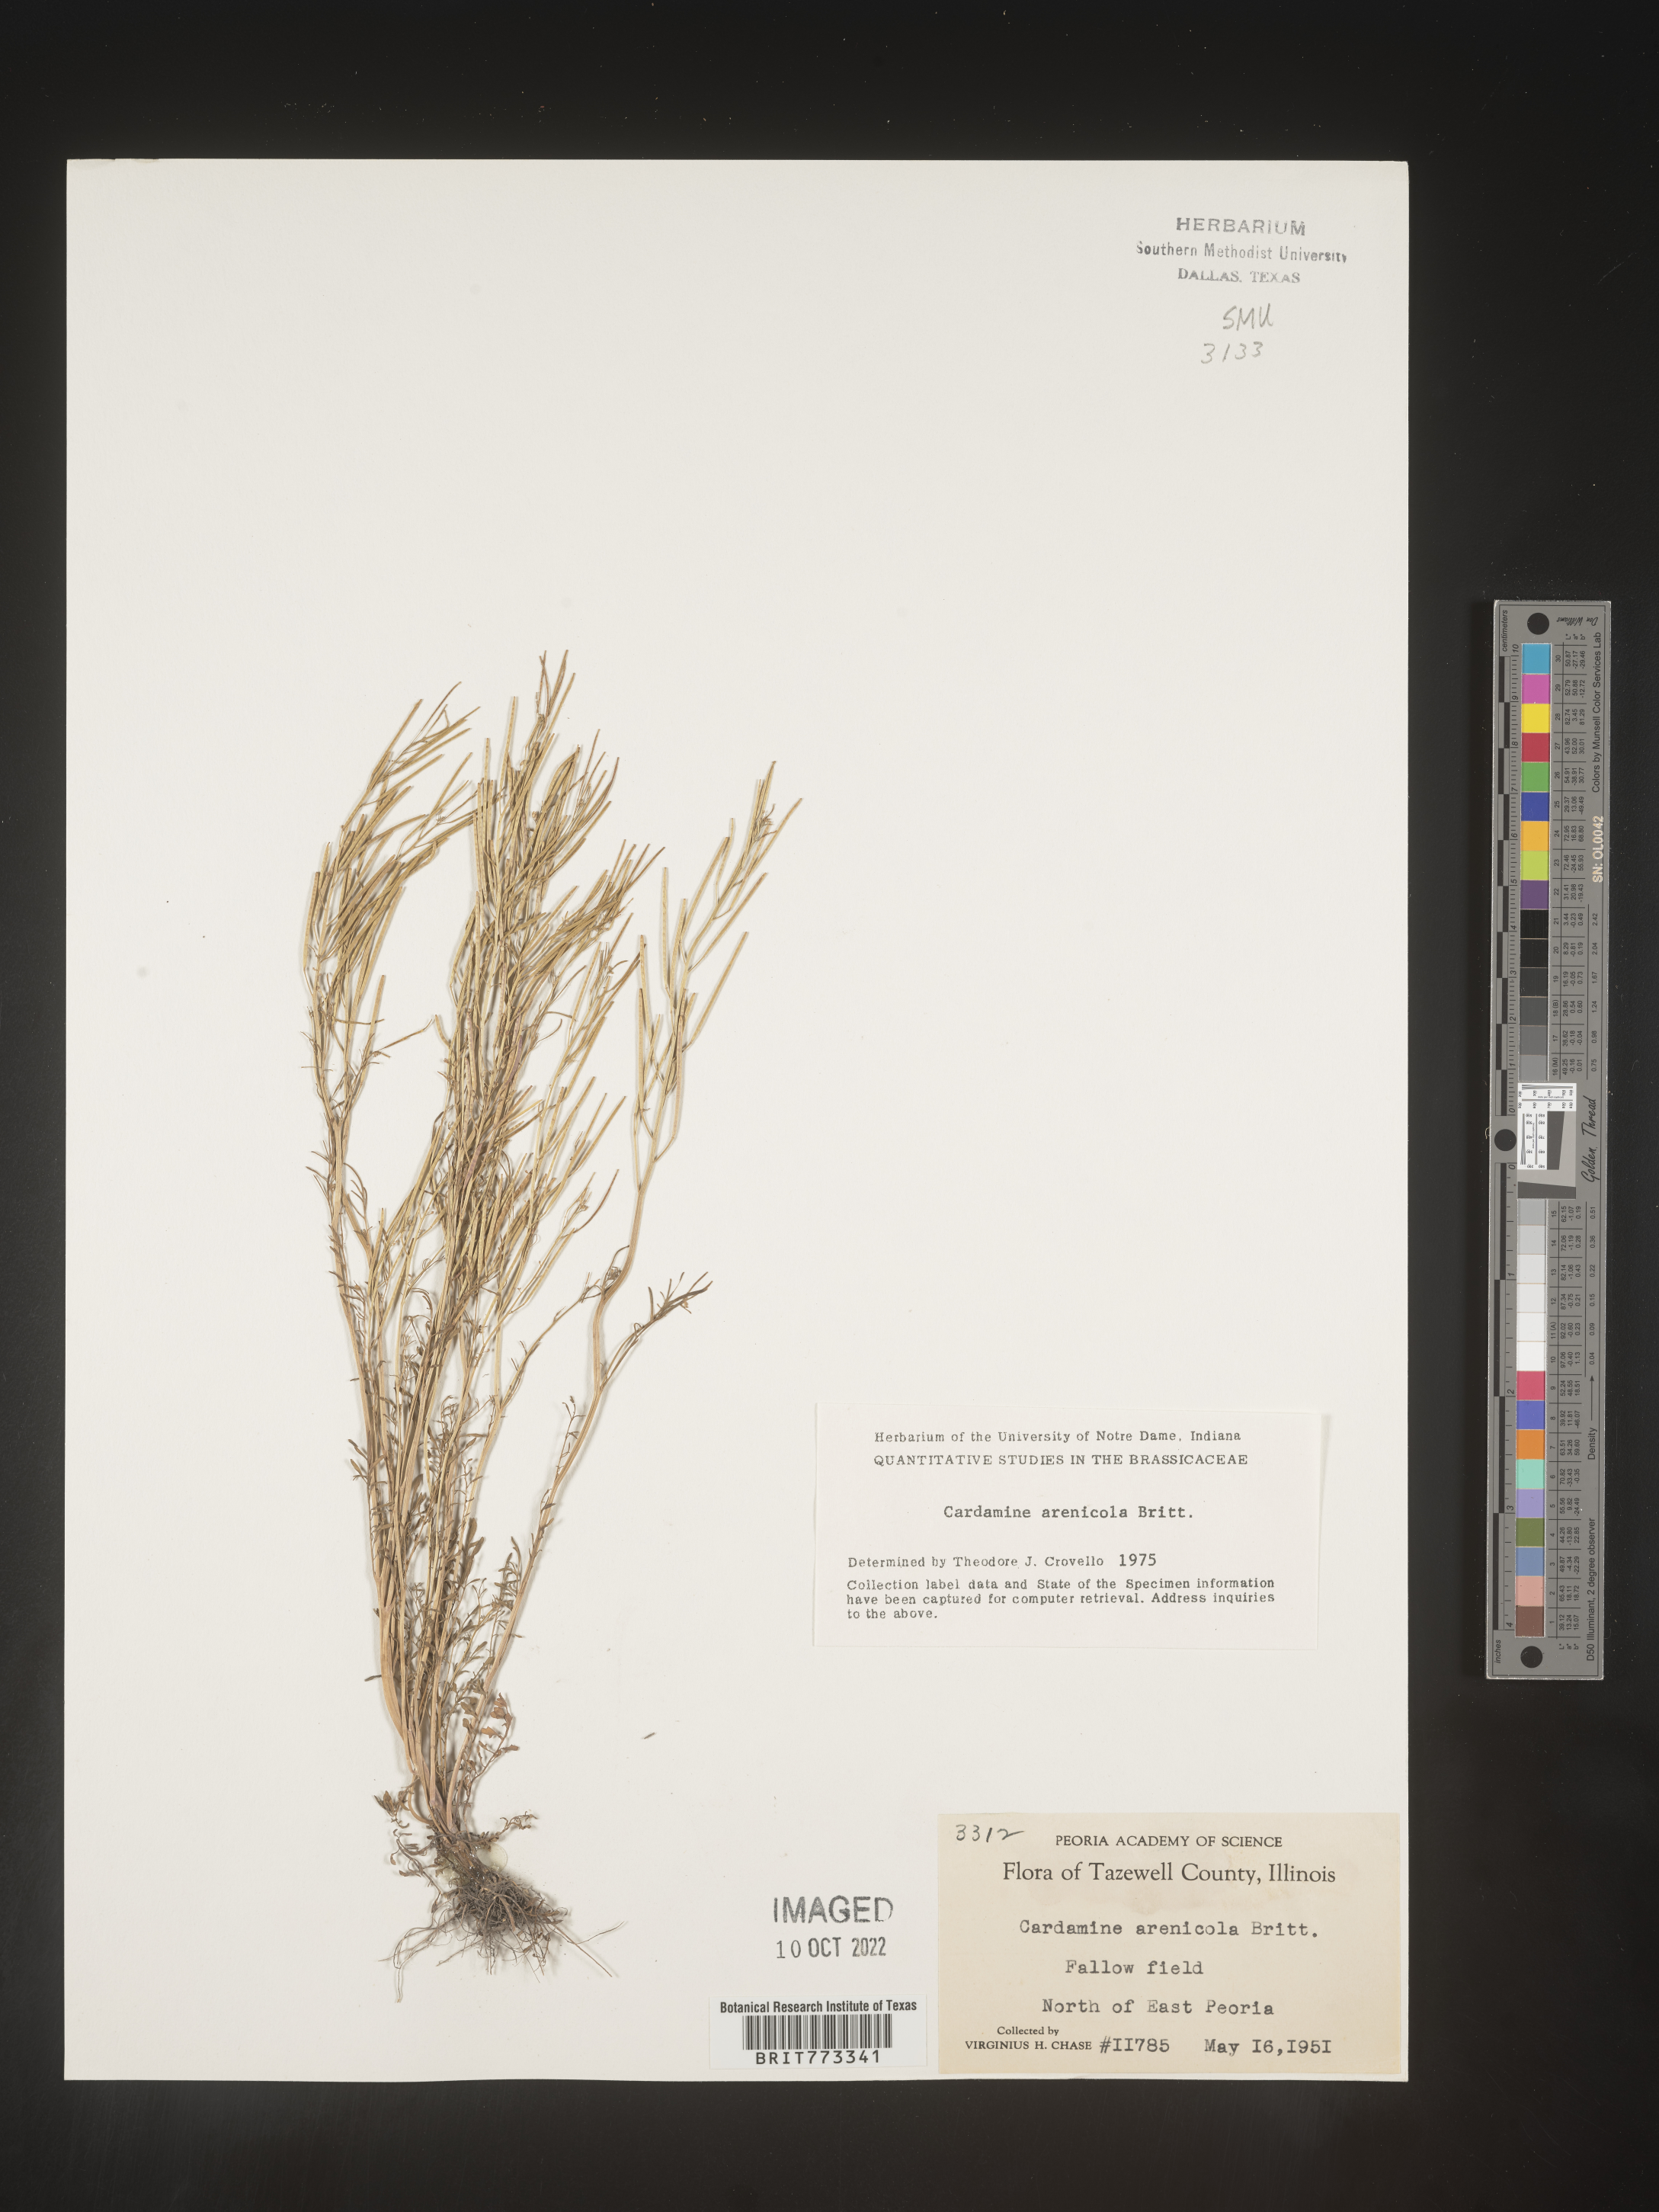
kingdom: Plantae
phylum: Tracheophyta
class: Magnoliopsida
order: Brassicales
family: Brassicaceae
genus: Cardamine
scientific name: Cardamine
